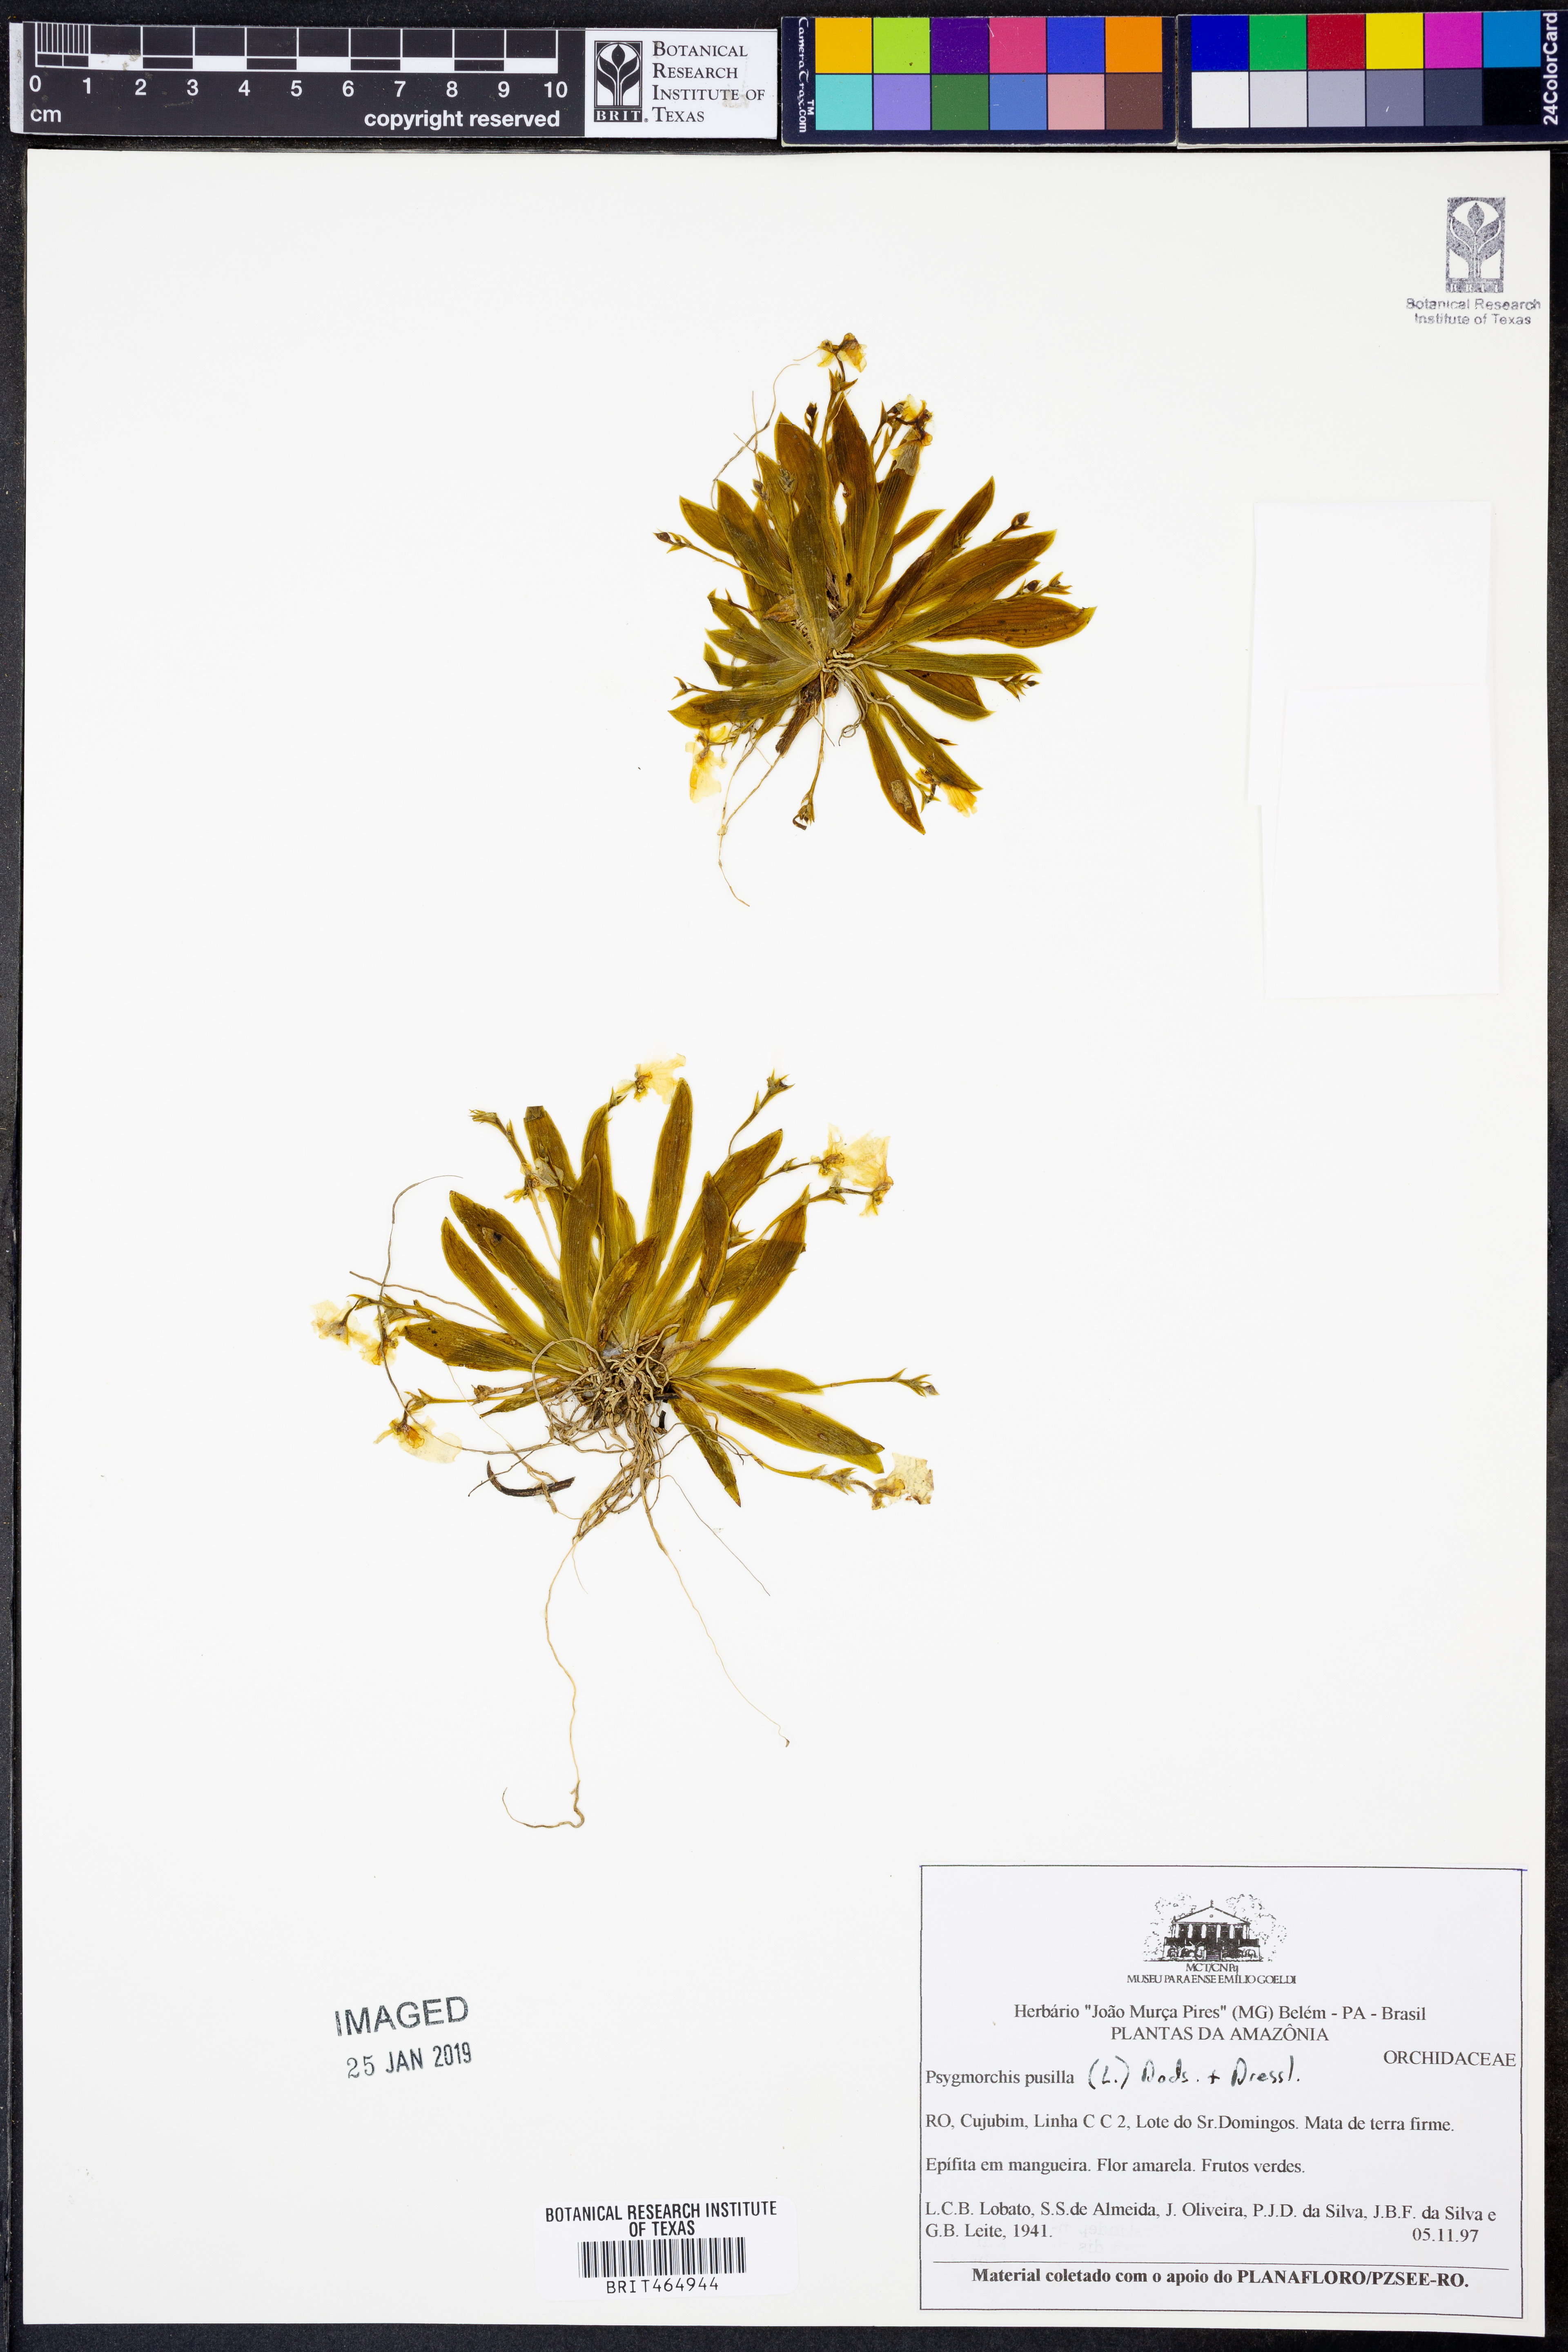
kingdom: Plantae
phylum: Tracheophyta
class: Liliopsida
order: Asparagales
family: Orchidaceae
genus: Erycina
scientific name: Erycina pusilla
